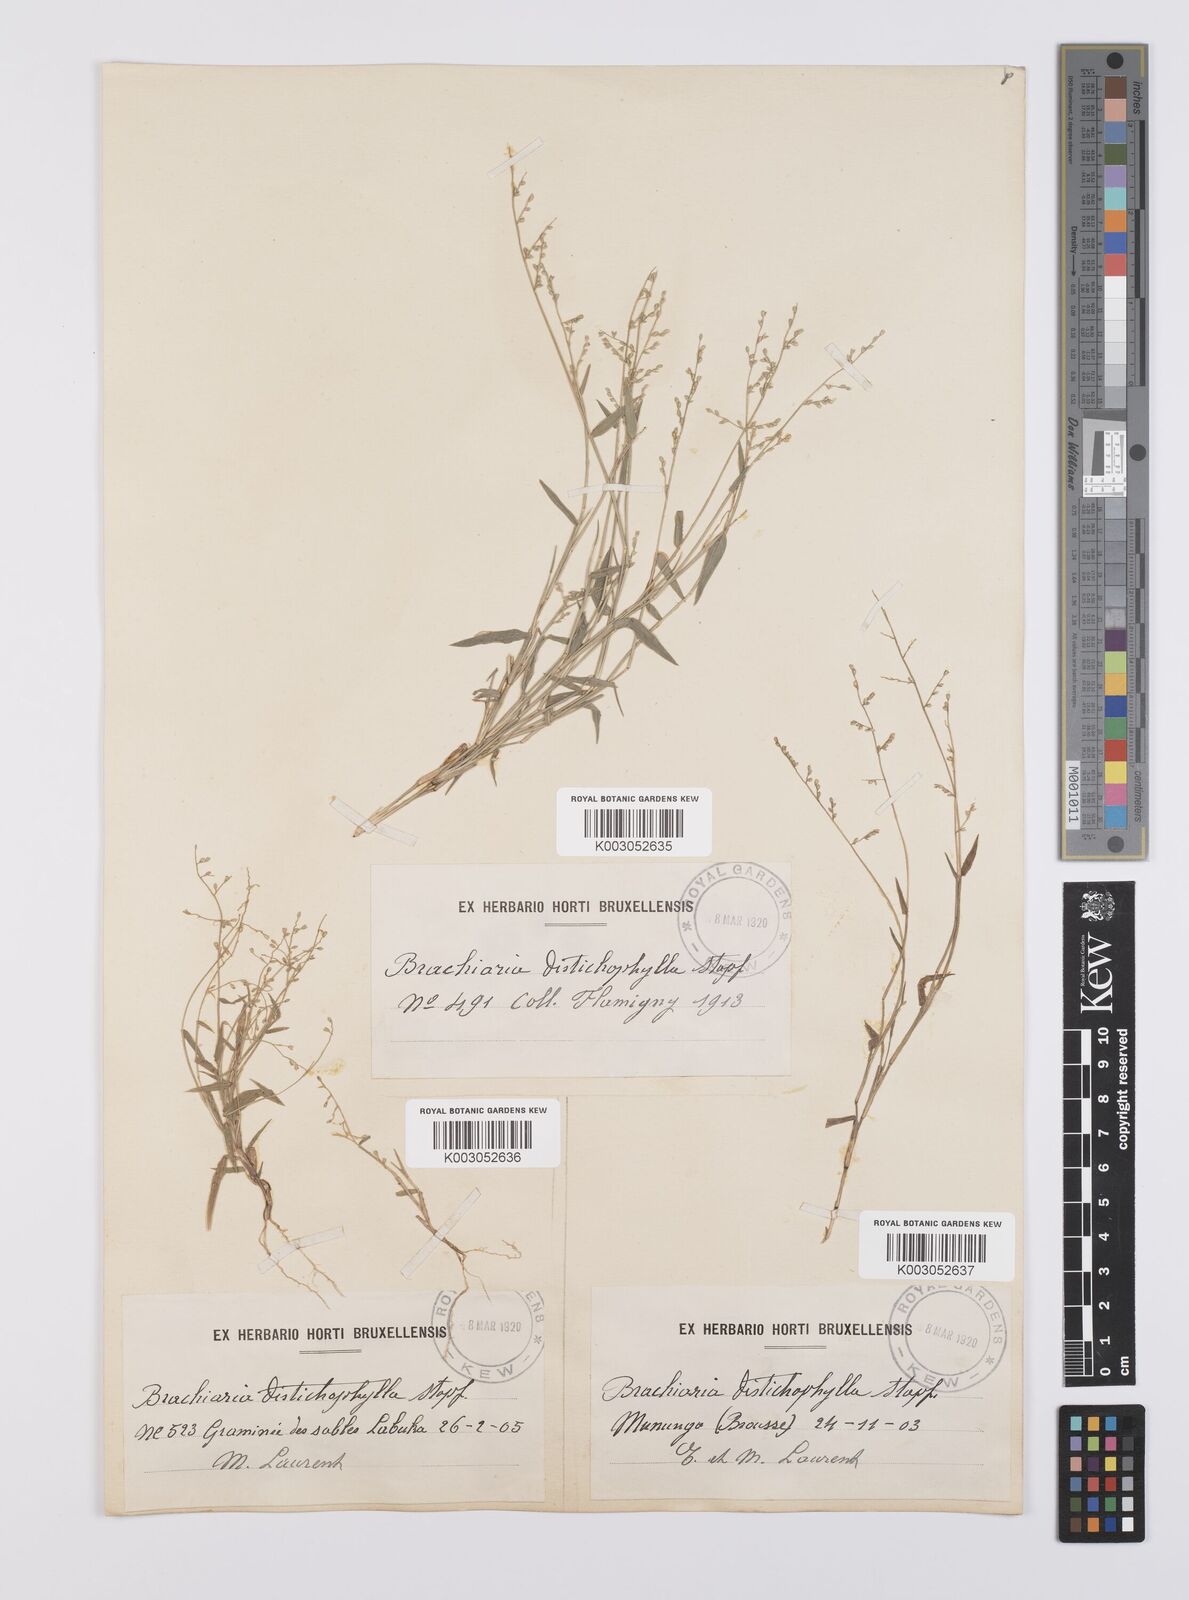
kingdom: Plantae
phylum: Tracheophyta
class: Liliopsida
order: Poales
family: Poaceae
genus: Urochloa
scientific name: Urochloa villosa
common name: Hairy signalgrass
